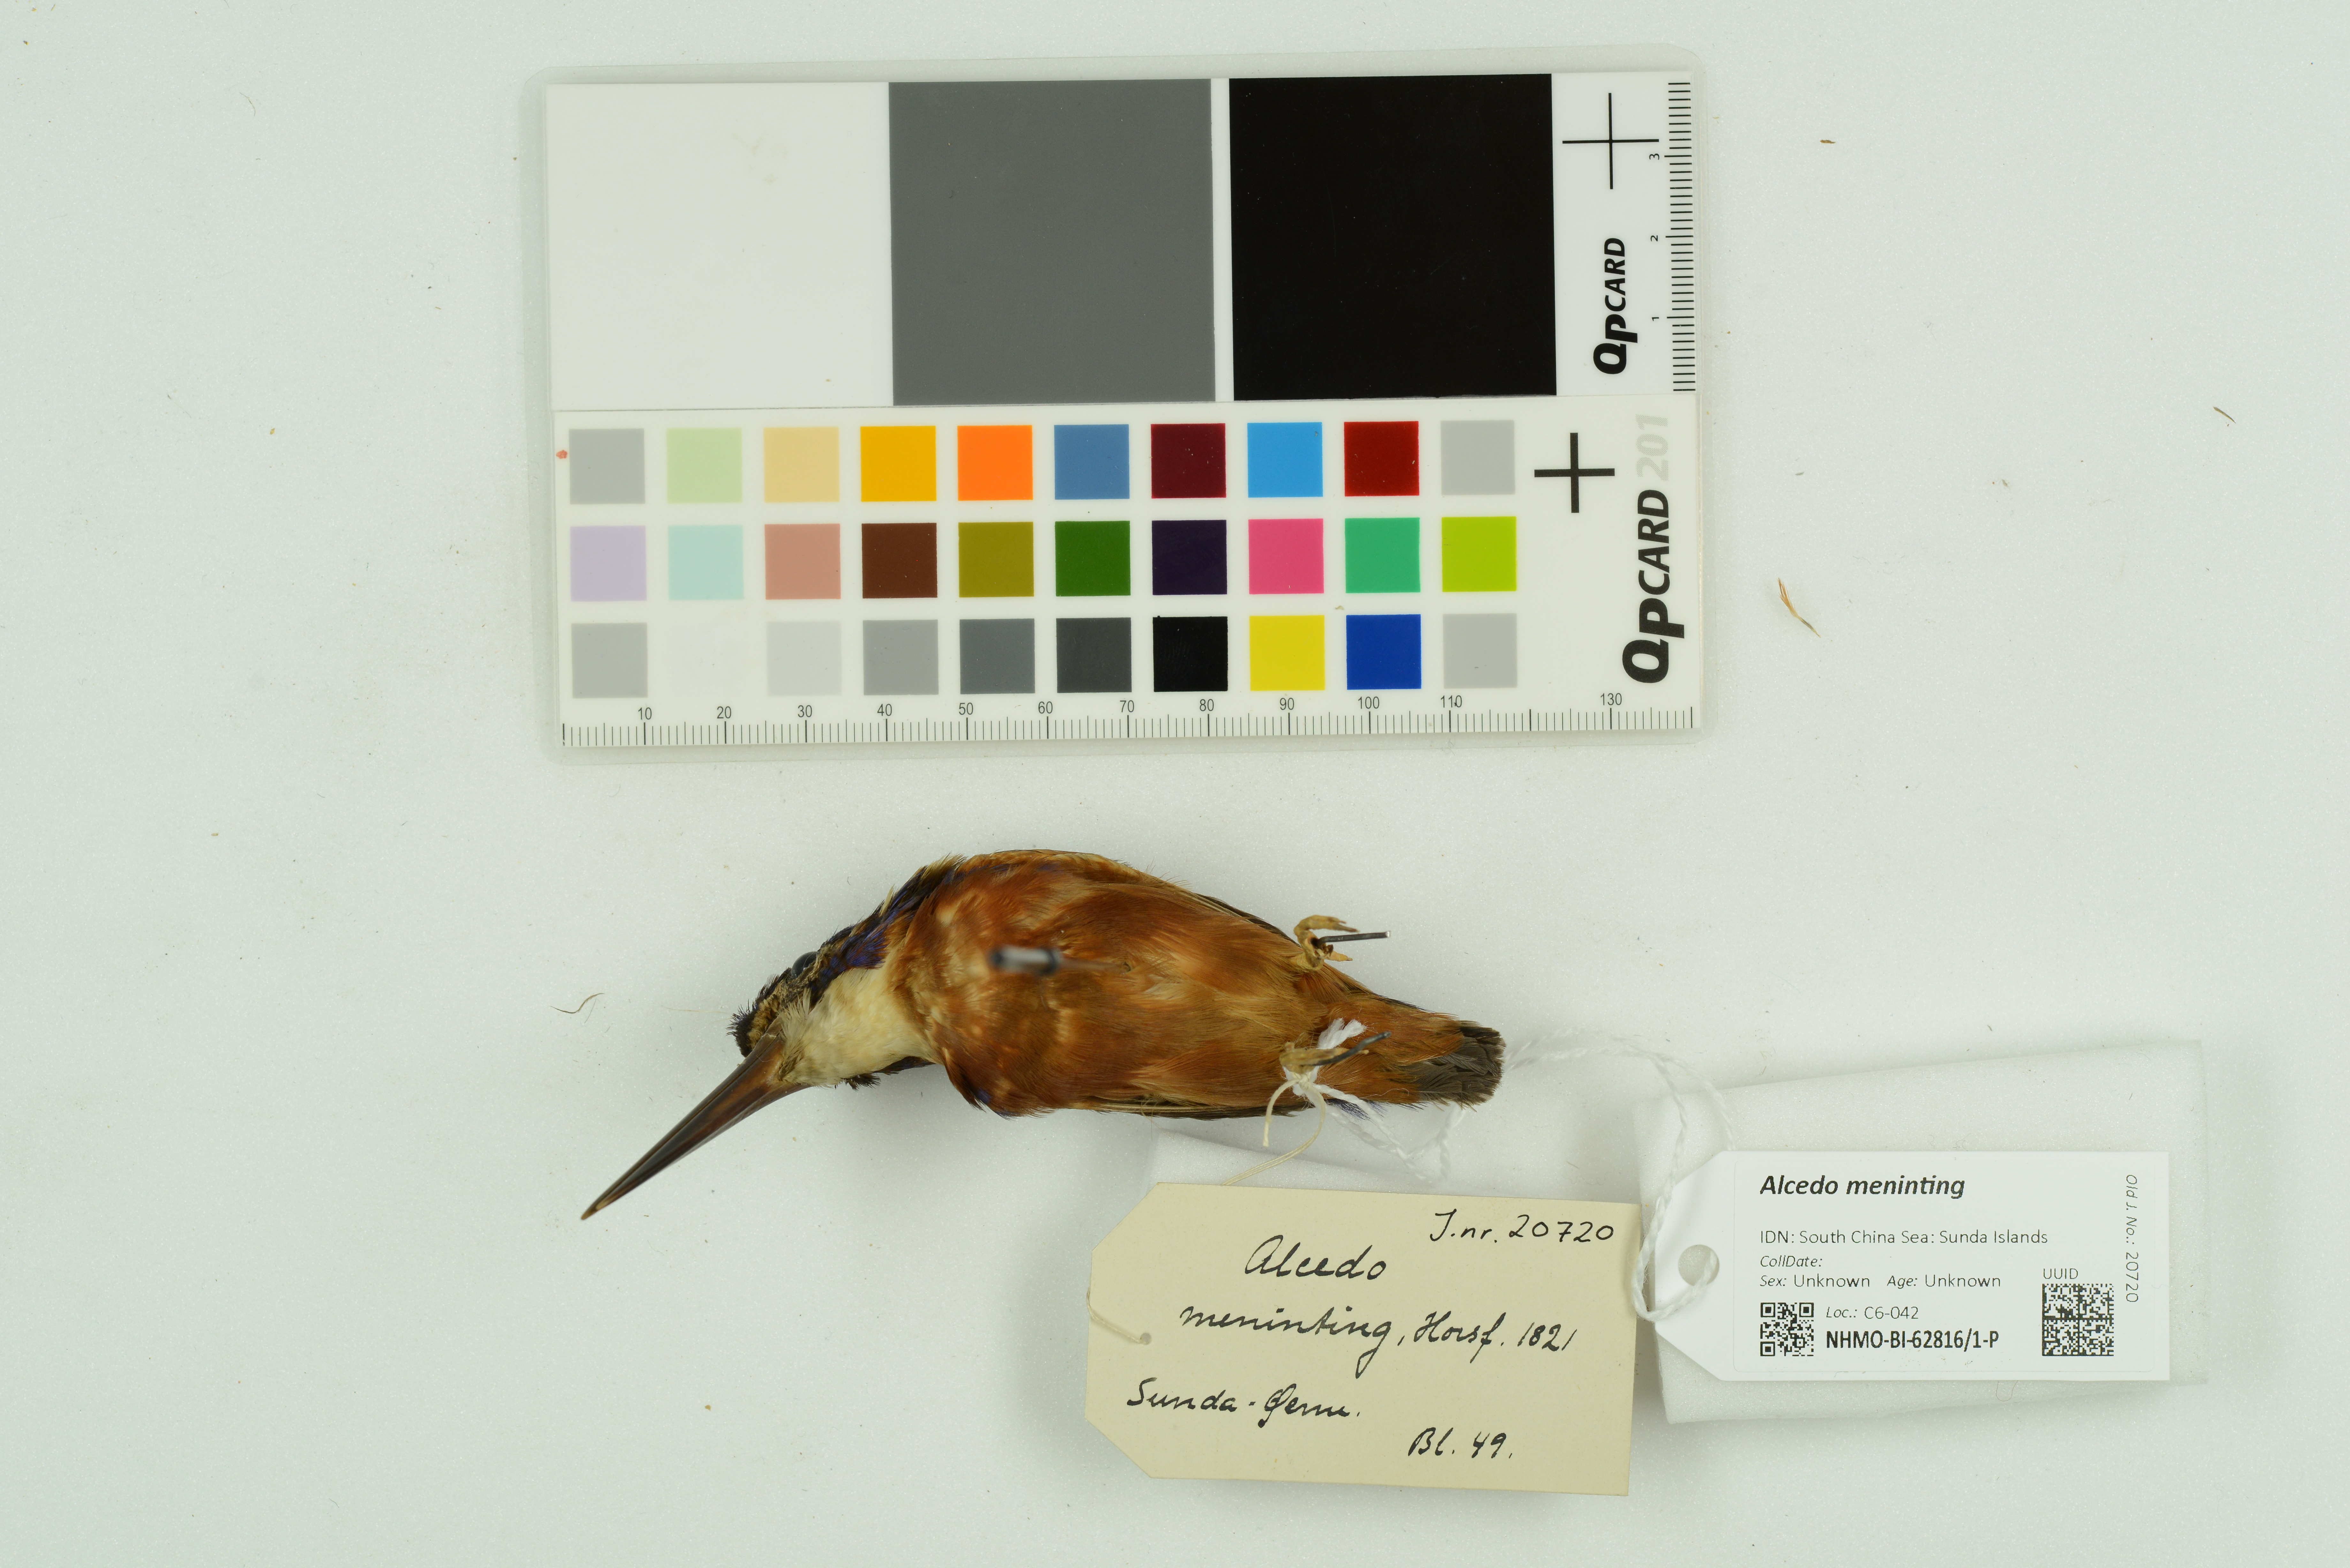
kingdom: Animalia
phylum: Chordata
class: Aves
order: Coraciiformes
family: Alcedinidae
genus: Alcedo
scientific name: Alcedo meninting
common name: Blue-eared kingfisher
